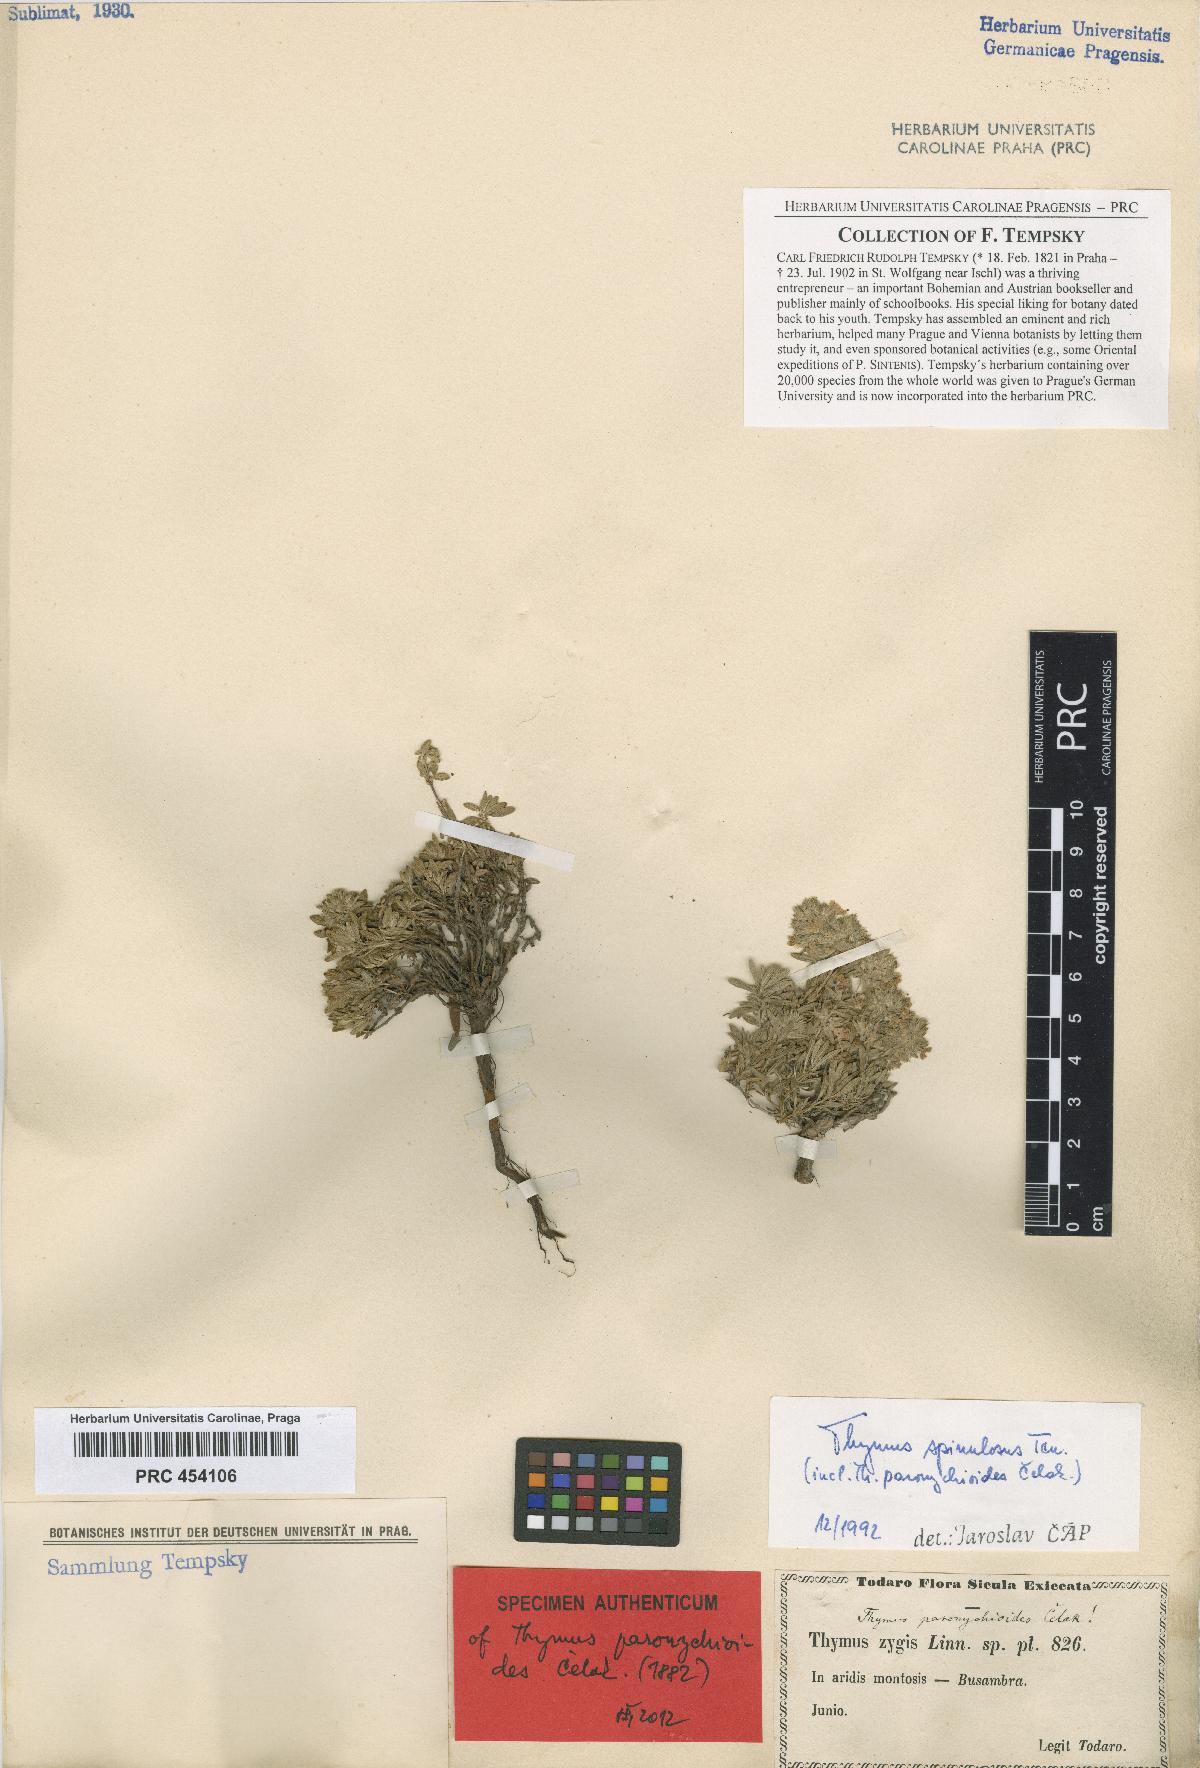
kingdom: Plantae
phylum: Tracheophyta
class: Magnoliopsida
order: Lamiales
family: Lamiaceae
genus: Thymus
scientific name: Thymus paronychioides
